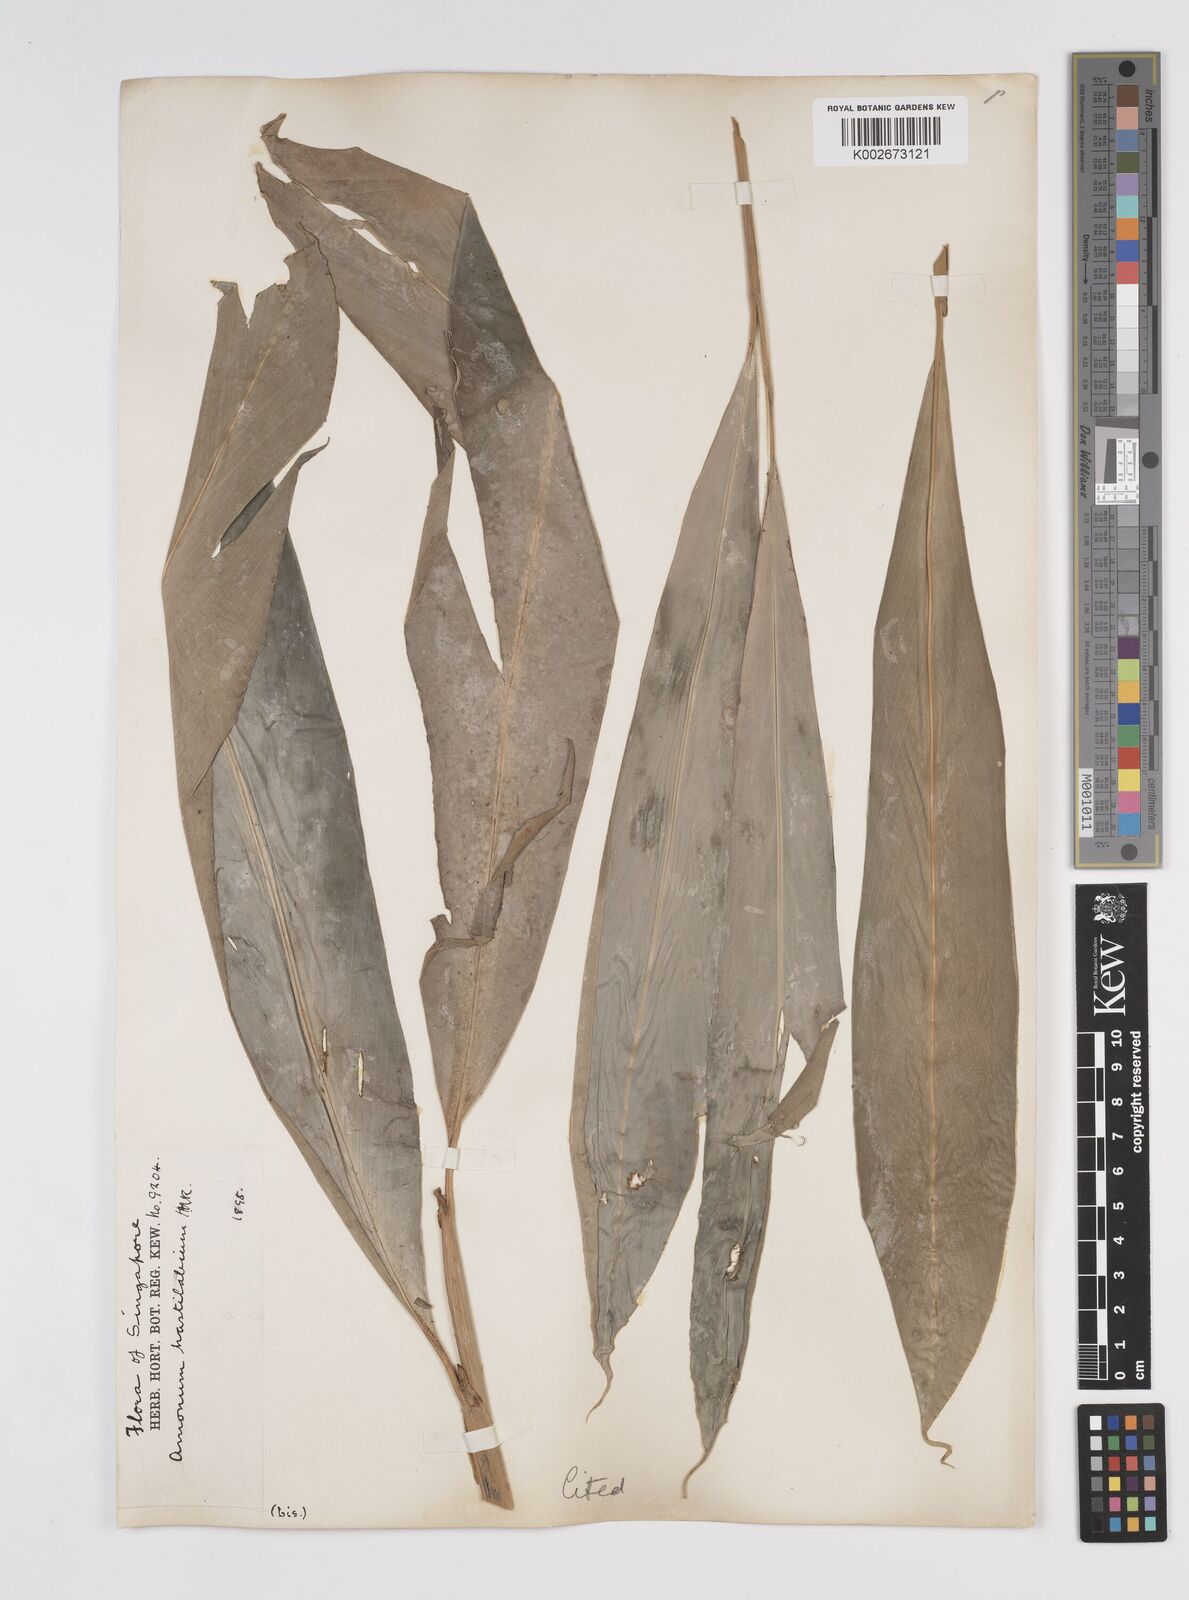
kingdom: Plantae
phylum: Tracheophyta
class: Liliopsida
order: Zingiberales
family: Zingiberaceae
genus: Sundamomum
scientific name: Sundamomum hastilabium
